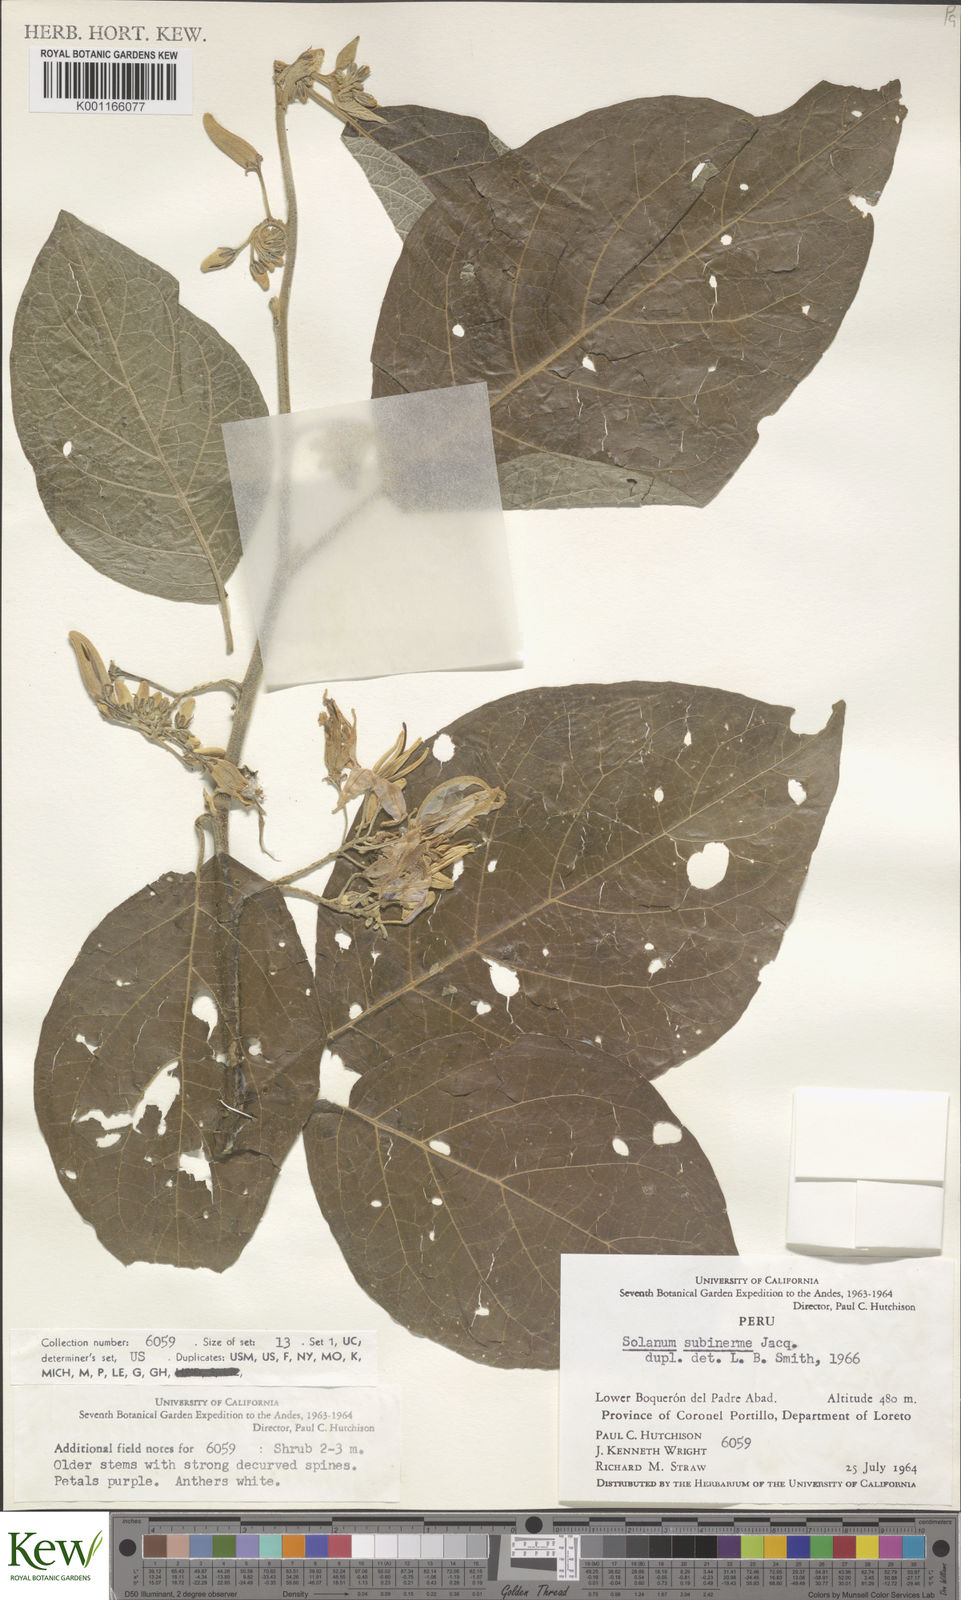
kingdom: Plantae
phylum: Tracheophyta
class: Magnoliopsida
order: Solanales
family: Solanaceae
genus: Solanum
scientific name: Solanum subinerme
